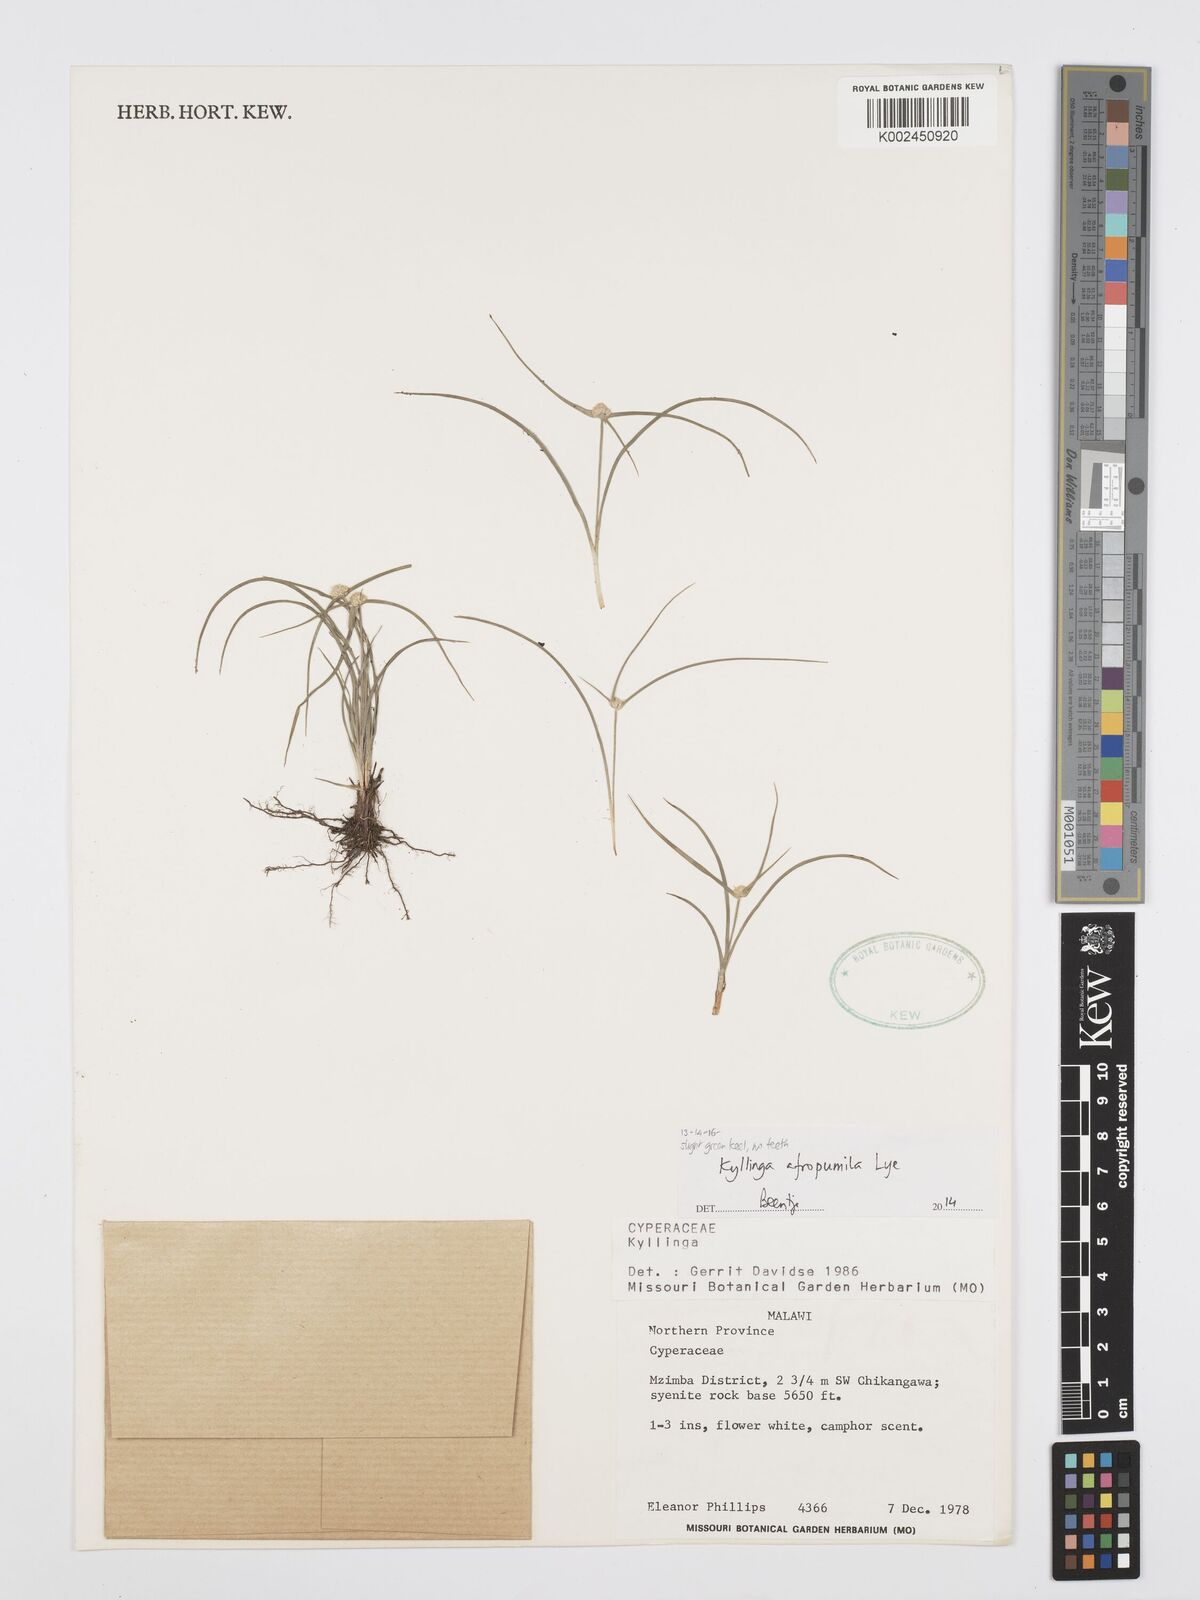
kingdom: Plantae
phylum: Tracheophyta
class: Liliopsida
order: Poales
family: Cyperaceae
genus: Cyperus
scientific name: Cyperus afropumilus
